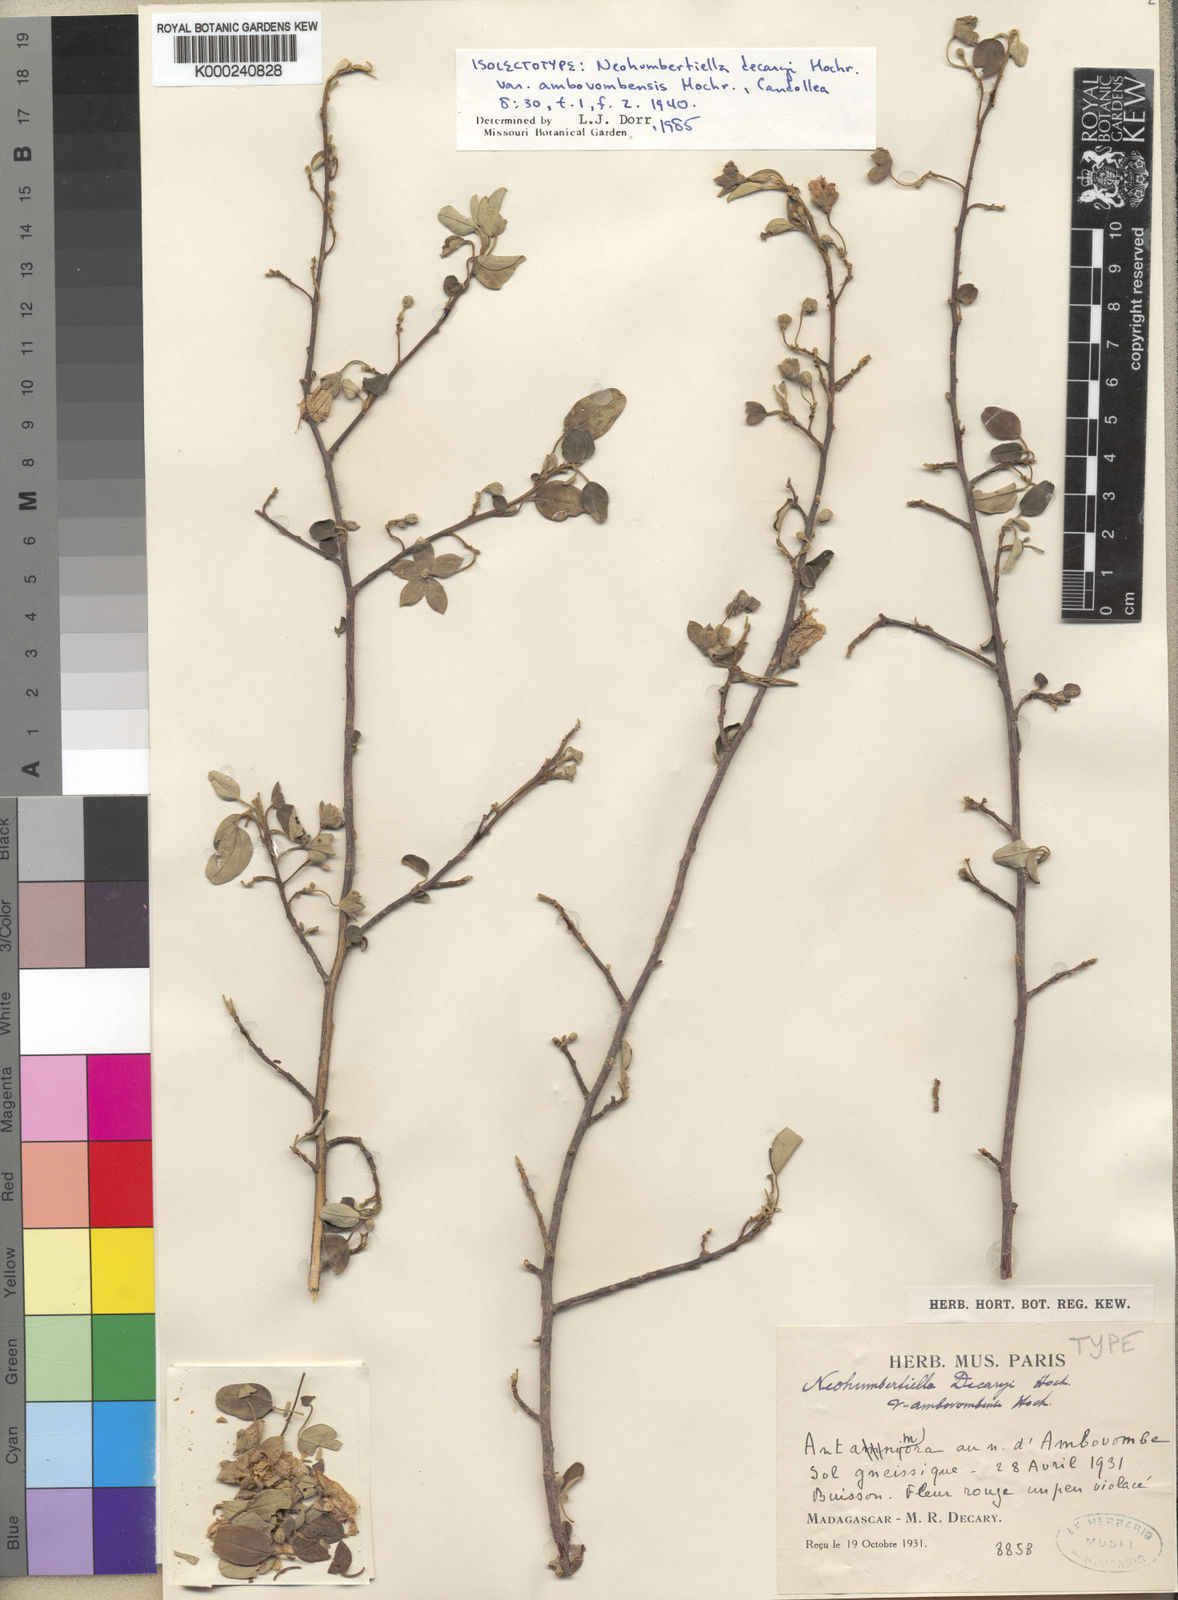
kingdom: Plantae
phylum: Tracheophyta
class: Magnoliopsida
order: Malvales
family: Malvaceae
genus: Humbertiella
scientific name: Humbertiella decaryi
